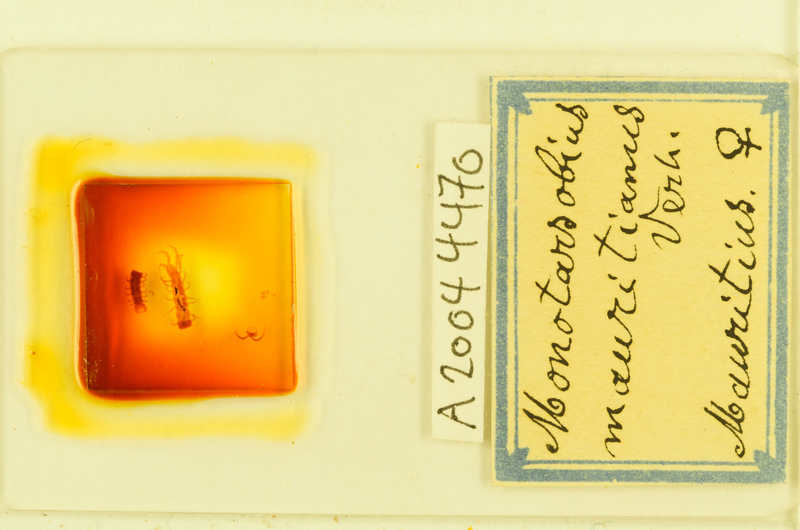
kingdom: Animalia
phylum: Arthropoda
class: Chilopoda
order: Lithobiomorpha
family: Lithobiidae
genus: Monotarsobius
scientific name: Monotarsobius
